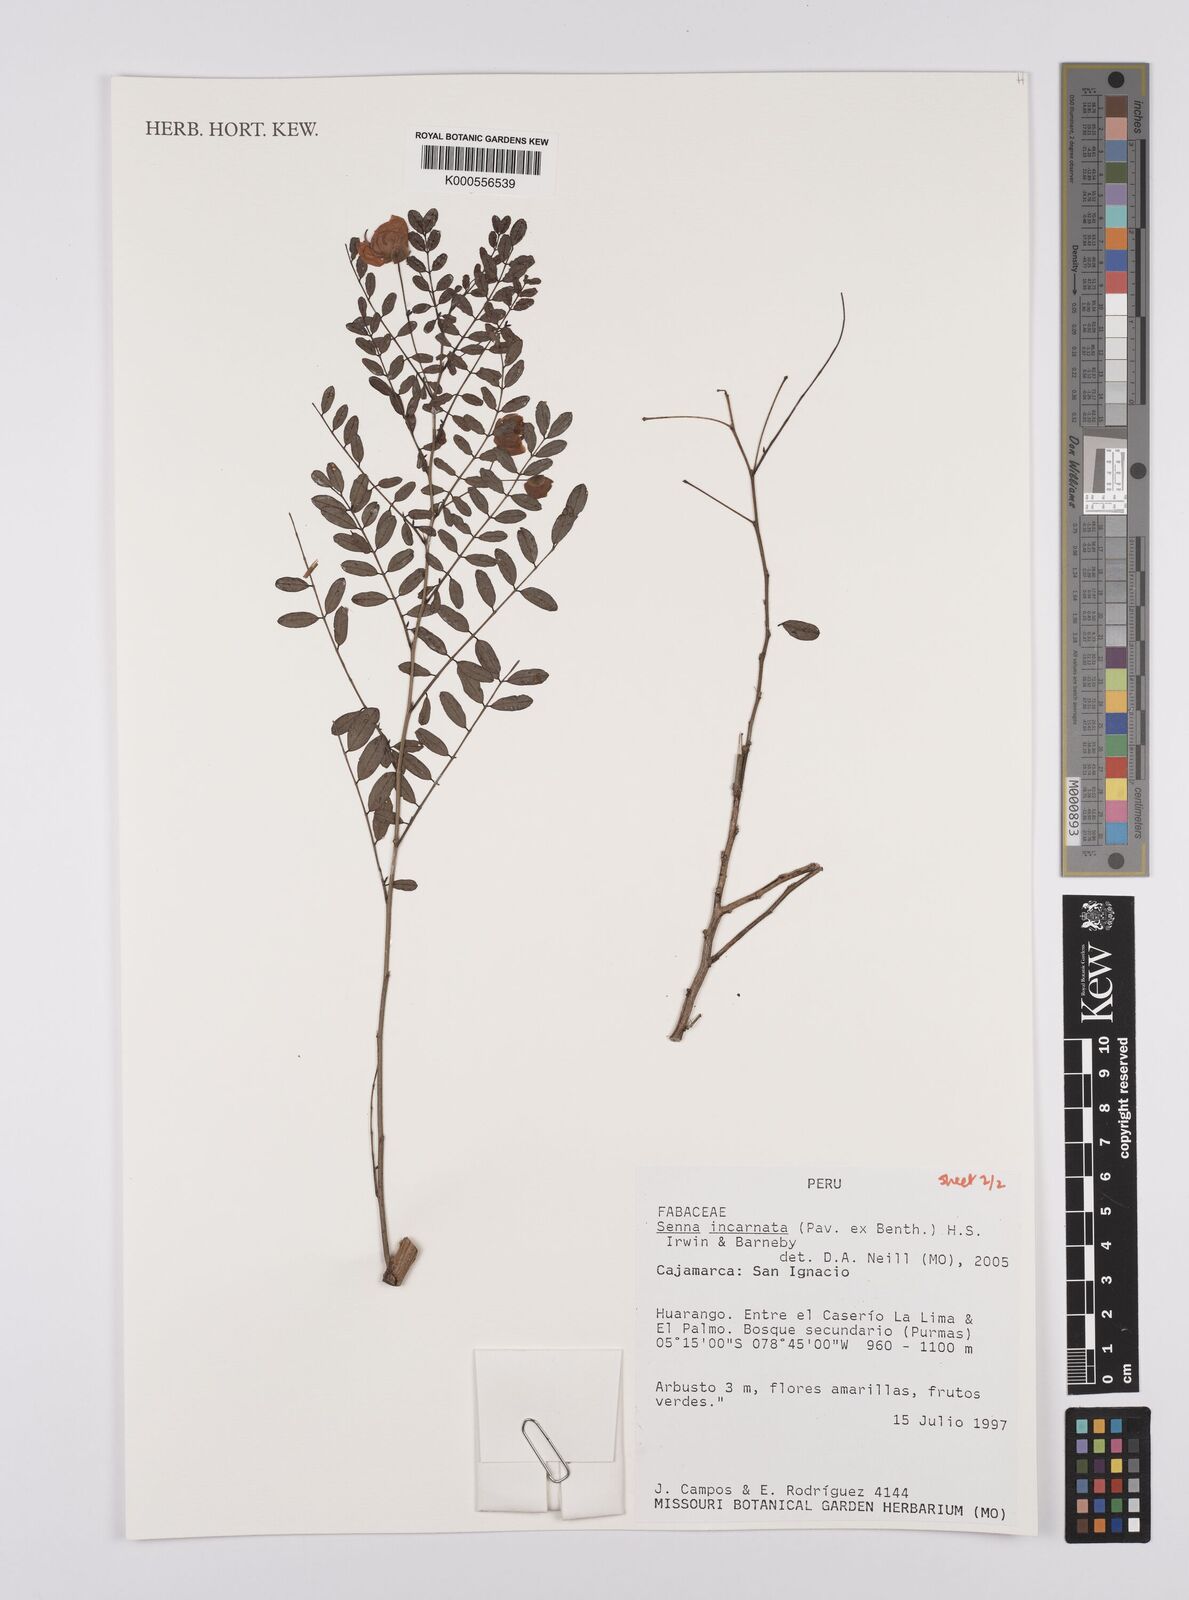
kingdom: Plantae
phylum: Tracheophyta
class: Magnoliopsida
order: Fabales
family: Fabaceae
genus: Senna
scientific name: Senna incarnata
